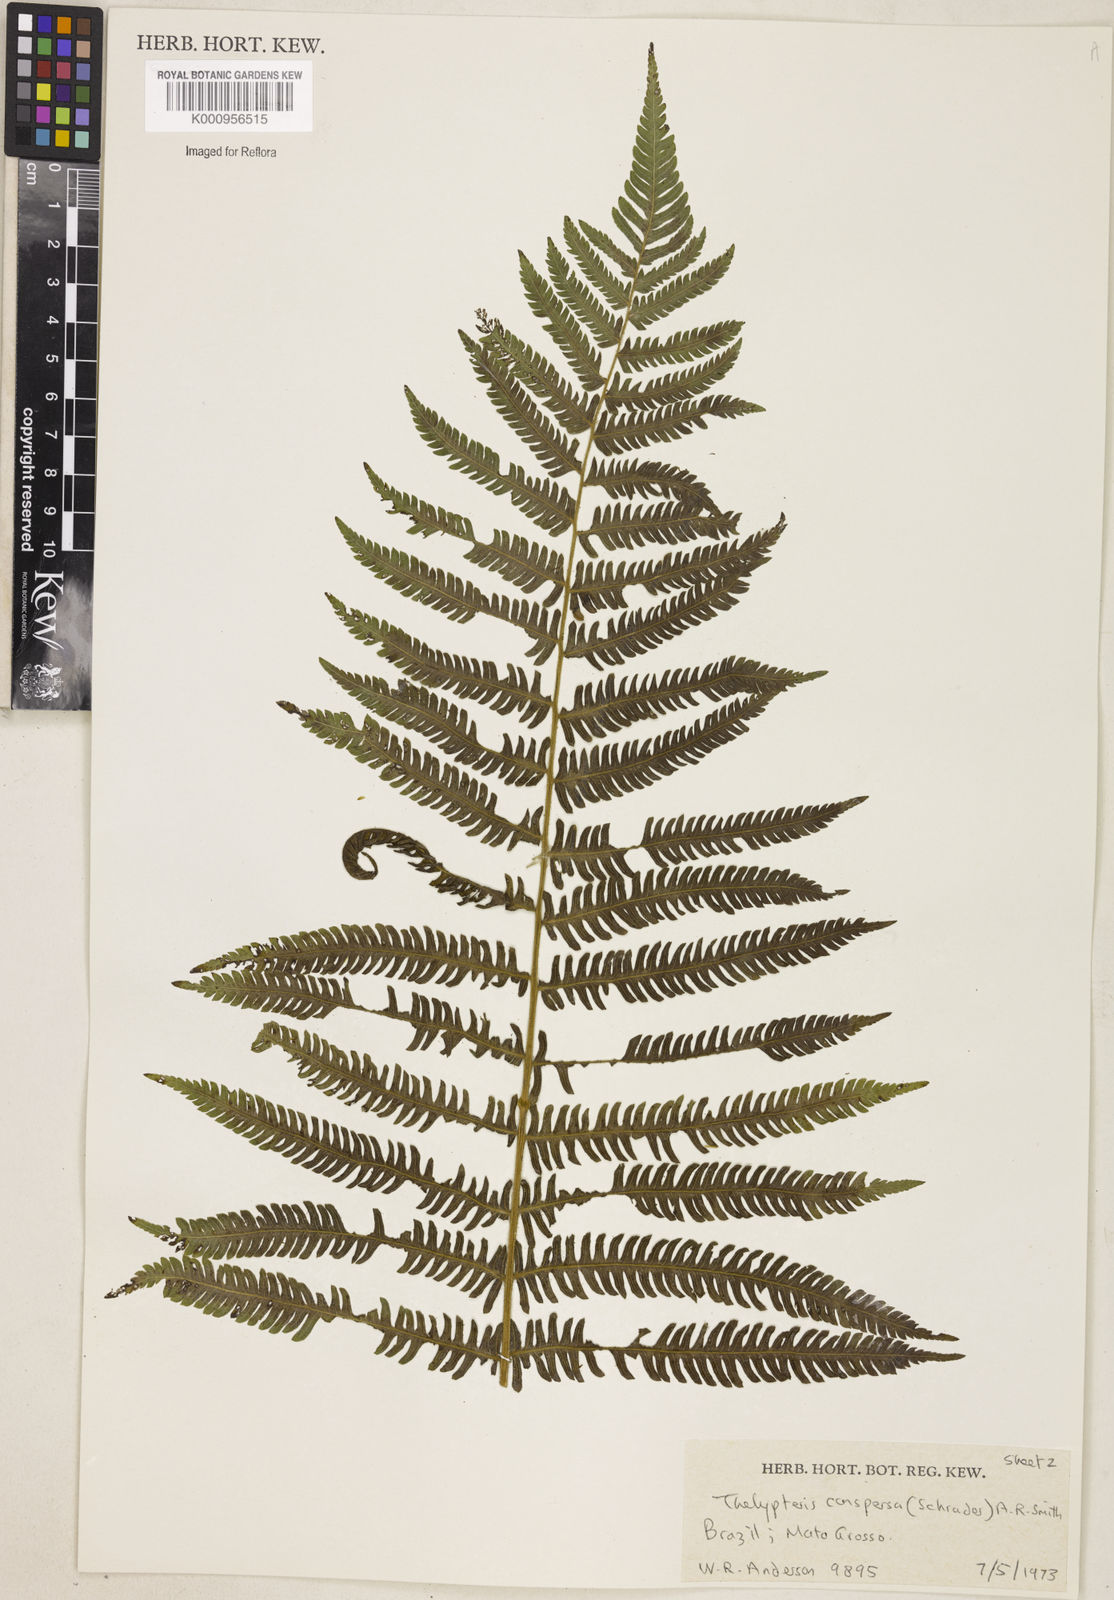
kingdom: Plantae
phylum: Tracheophyta
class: Polypodiopsida
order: Polypodiales
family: Thelypteridaceae
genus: Christella
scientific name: Christella
